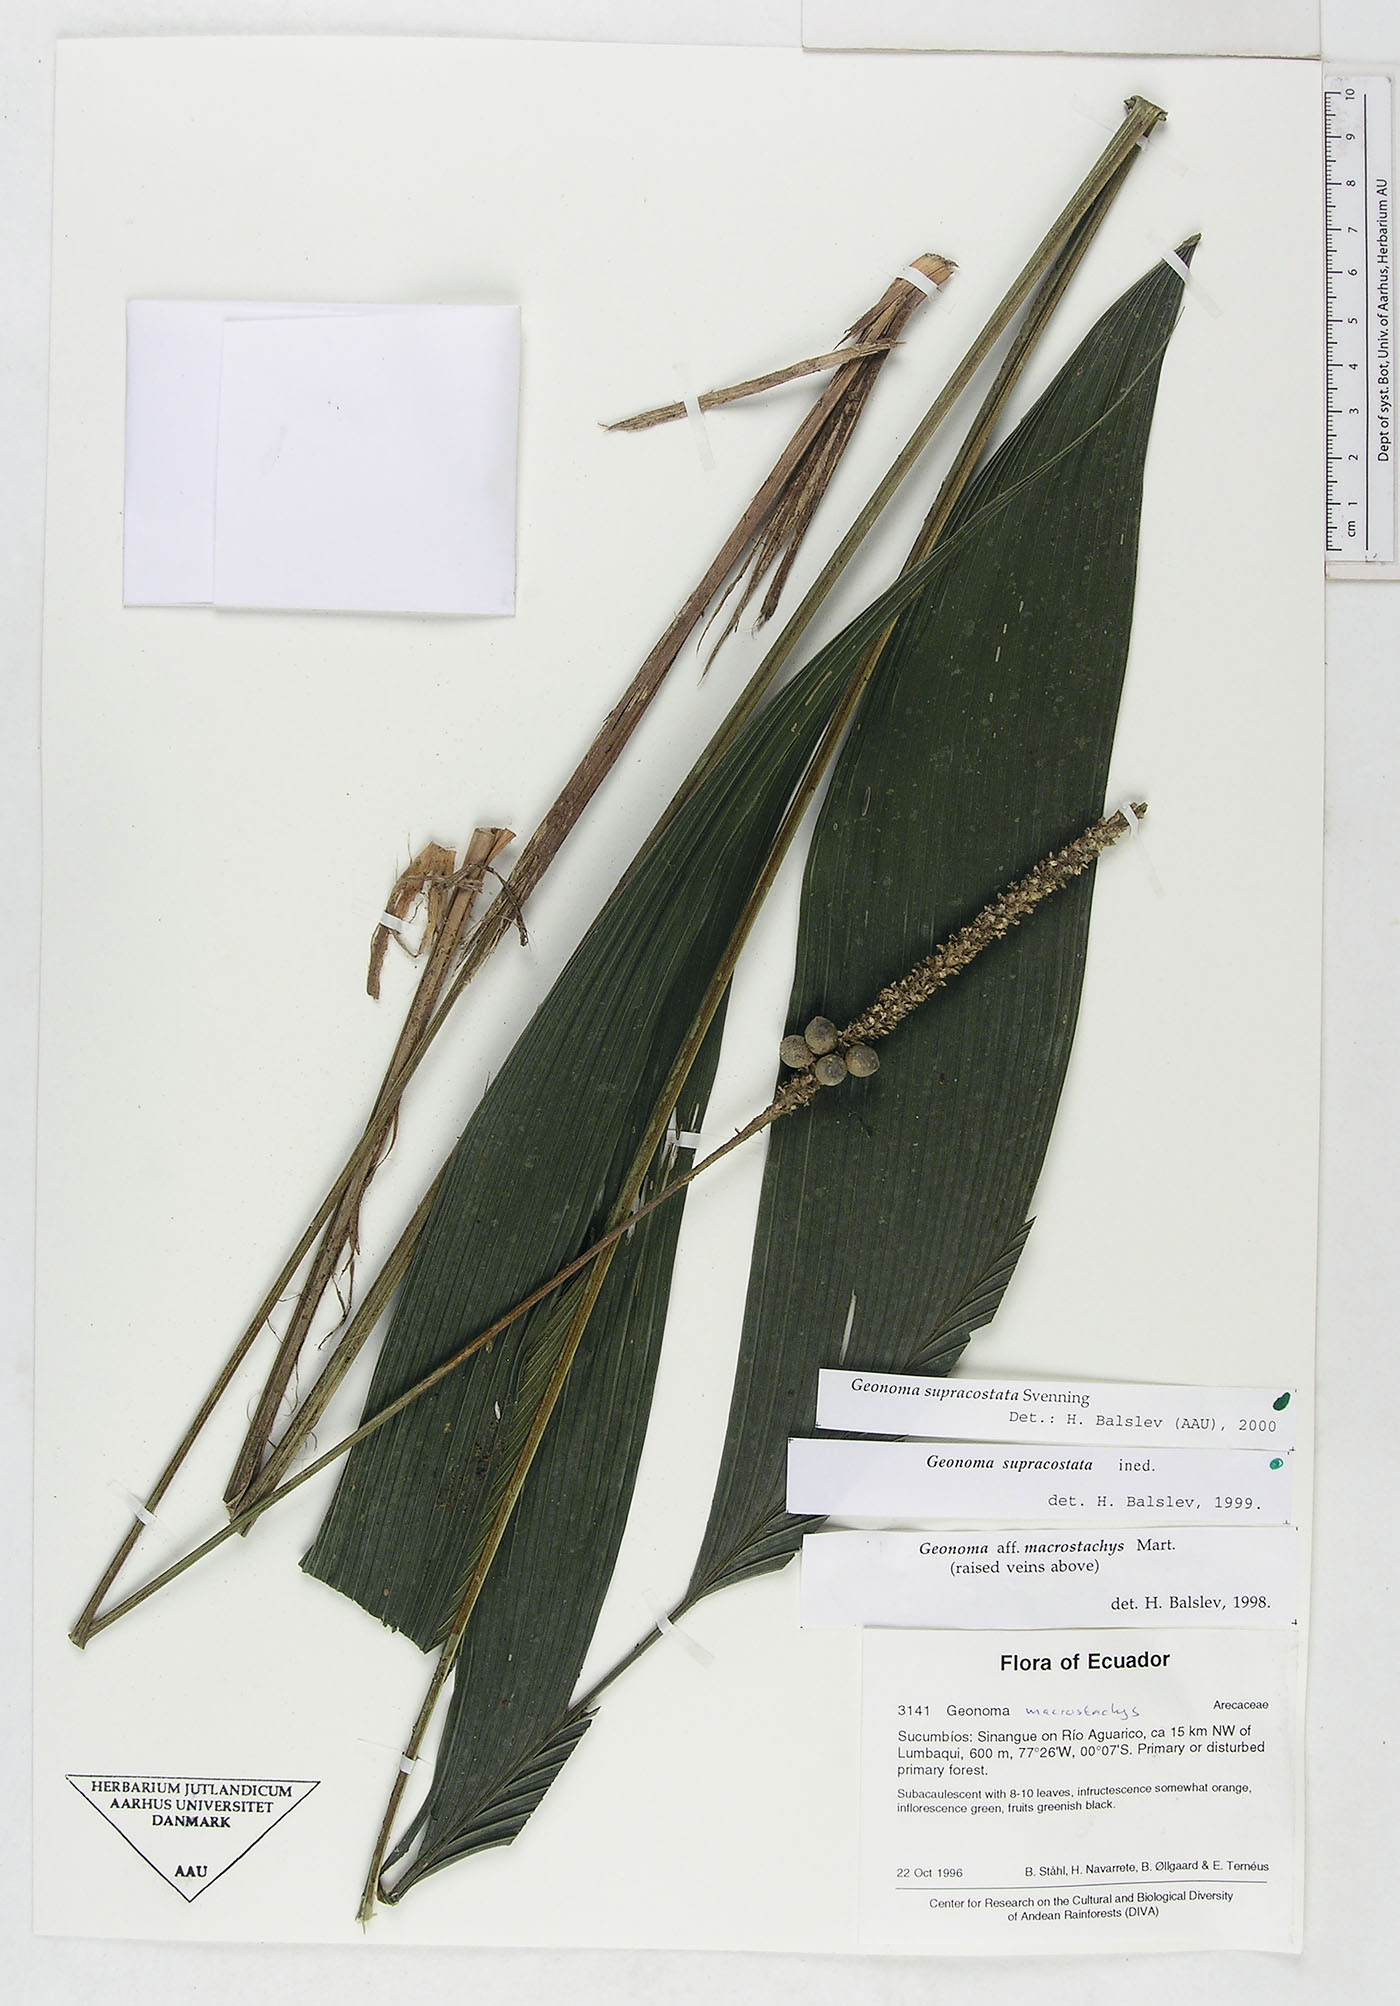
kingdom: Plantae
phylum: Tracheophyta
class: Liliopsida
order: Arecales
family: Arecaceae
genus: Geonoma
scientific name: Geonoma macrostachys
